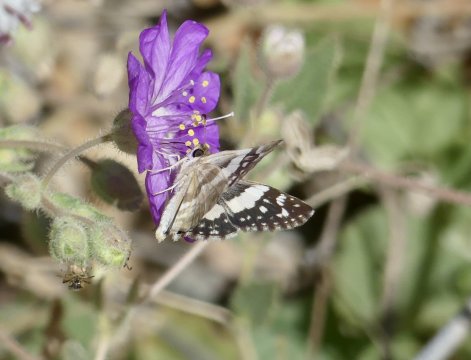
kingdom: Animalia
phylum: Arthropoda
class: Insecta
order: Lepidoptera
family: Hesperiidae
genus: Heliopyrgus
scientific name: Heliopyrgus domicella
